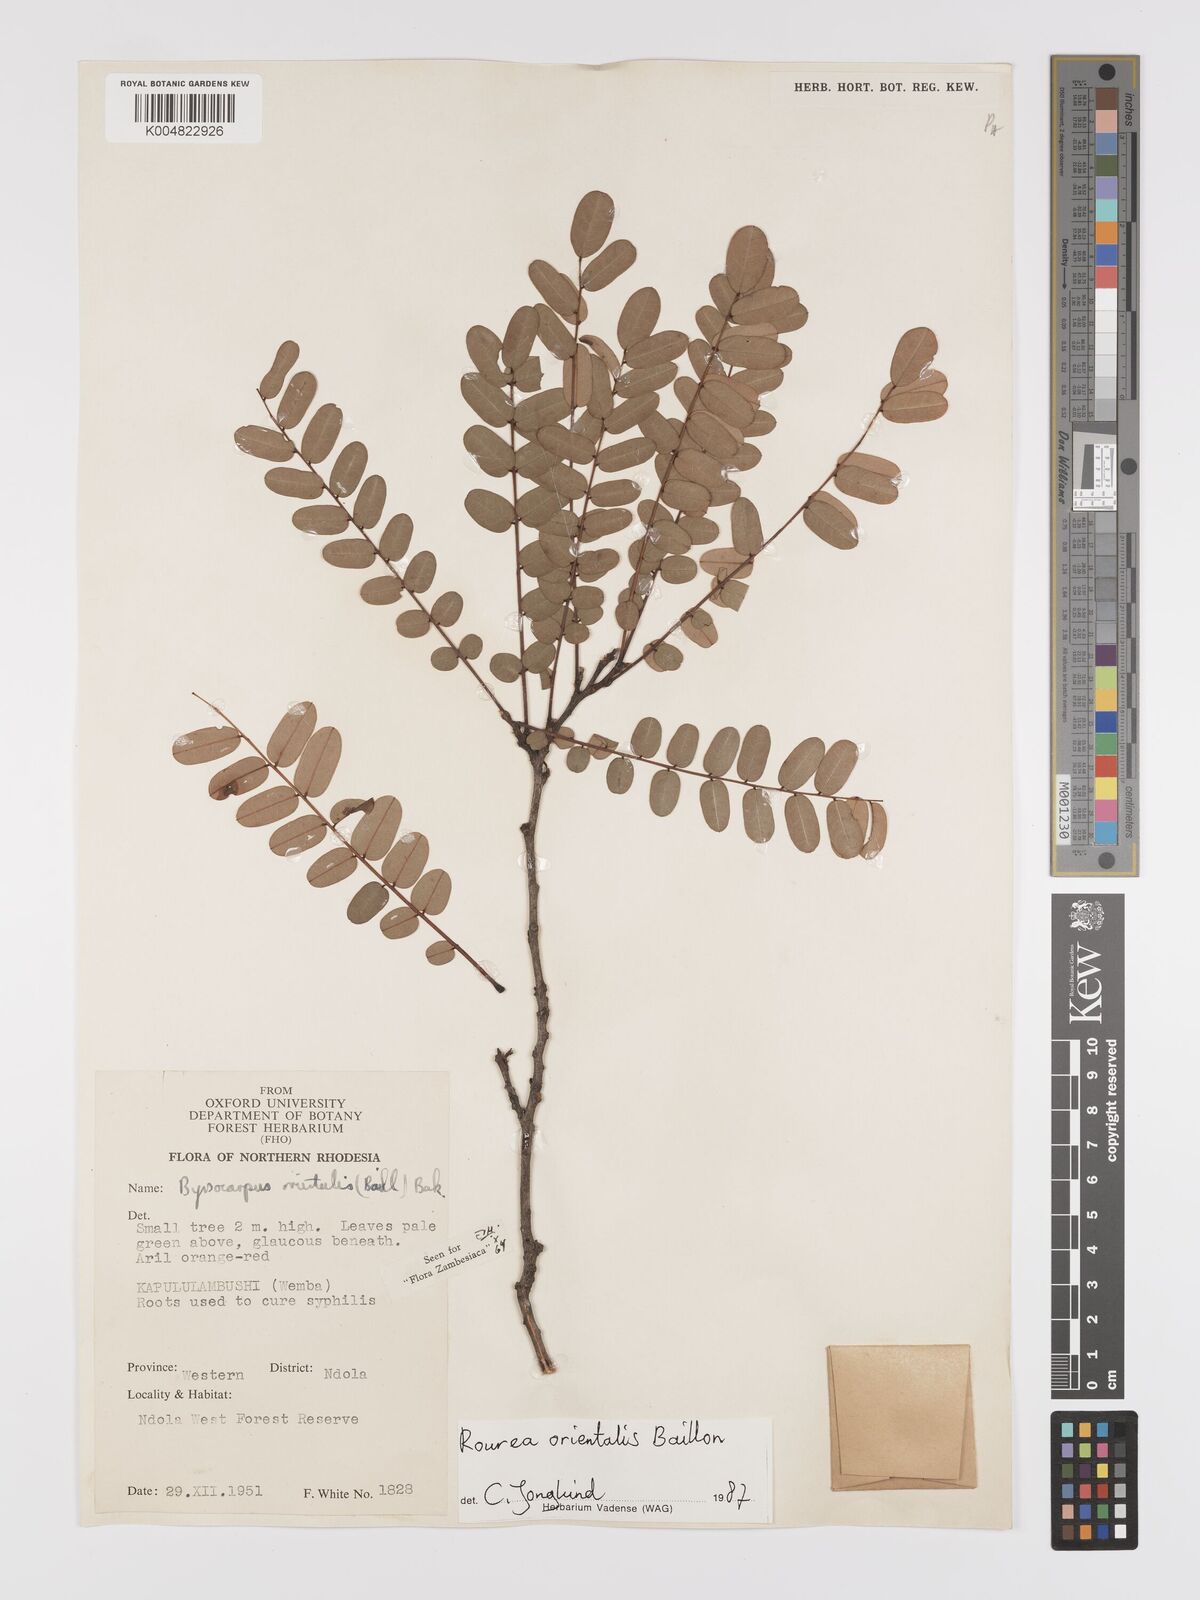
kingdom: Plantae
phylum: Tracheophyta
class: Magnoliopsida
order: Oxalidales
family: Connaraceae
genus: Rourea
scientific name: Rourea orientalis
